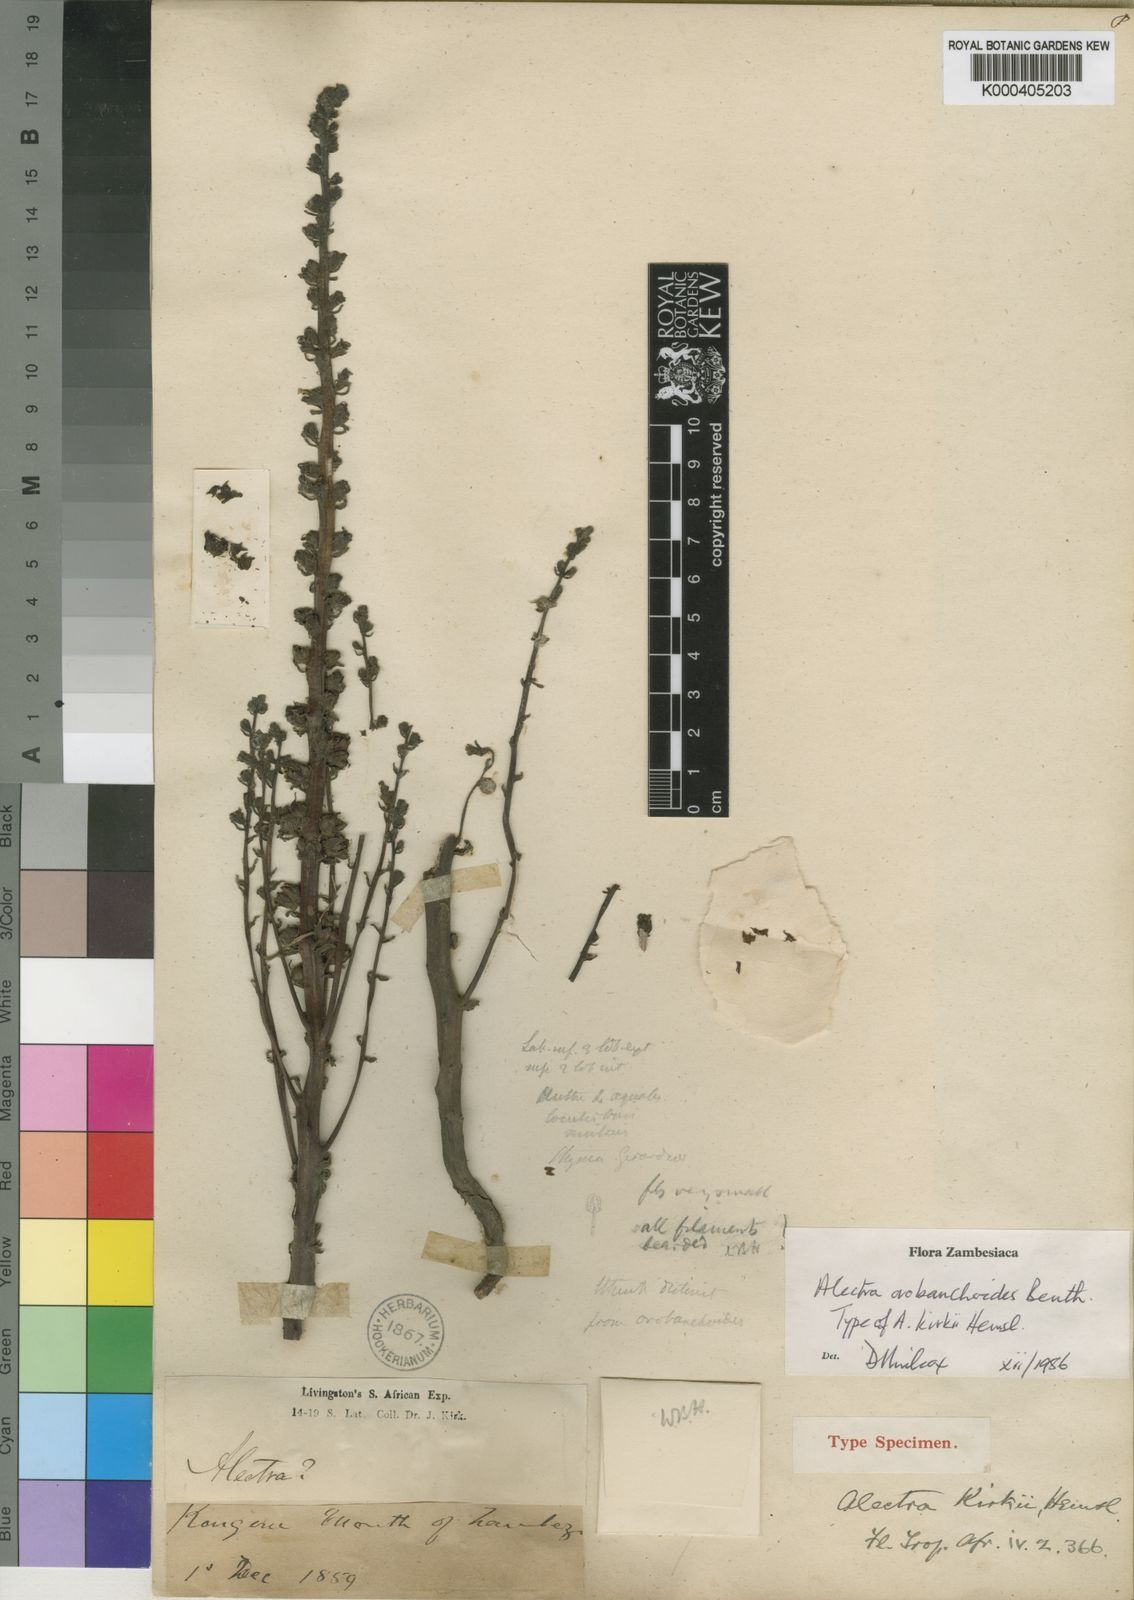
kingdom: Plantae
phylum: Tracheophyta
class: Magnoliopsida
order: Lamiales
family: Orobanchaceae
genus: Alectra
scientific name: Alectra orobanchoides
